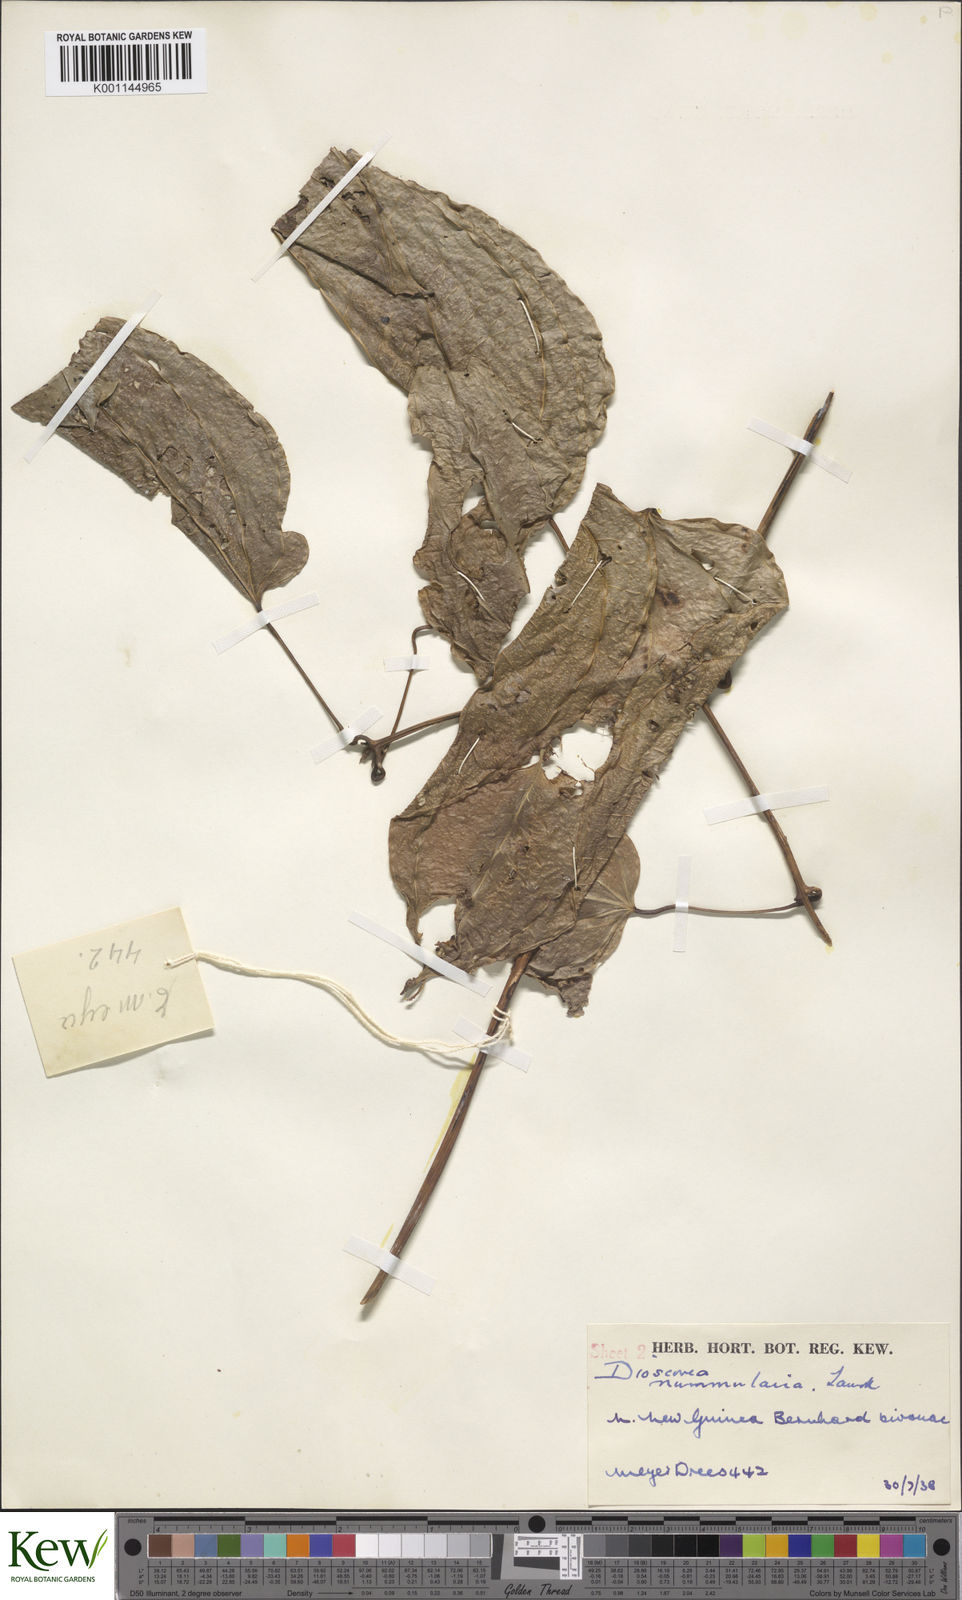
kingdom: Plantae
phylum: Tracheophyta
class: Liliopsida
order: Dioscoreales
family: Dioscoreaceae
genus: Dioscorea
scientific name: Dioscorea nummularia
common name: Pacific yam
